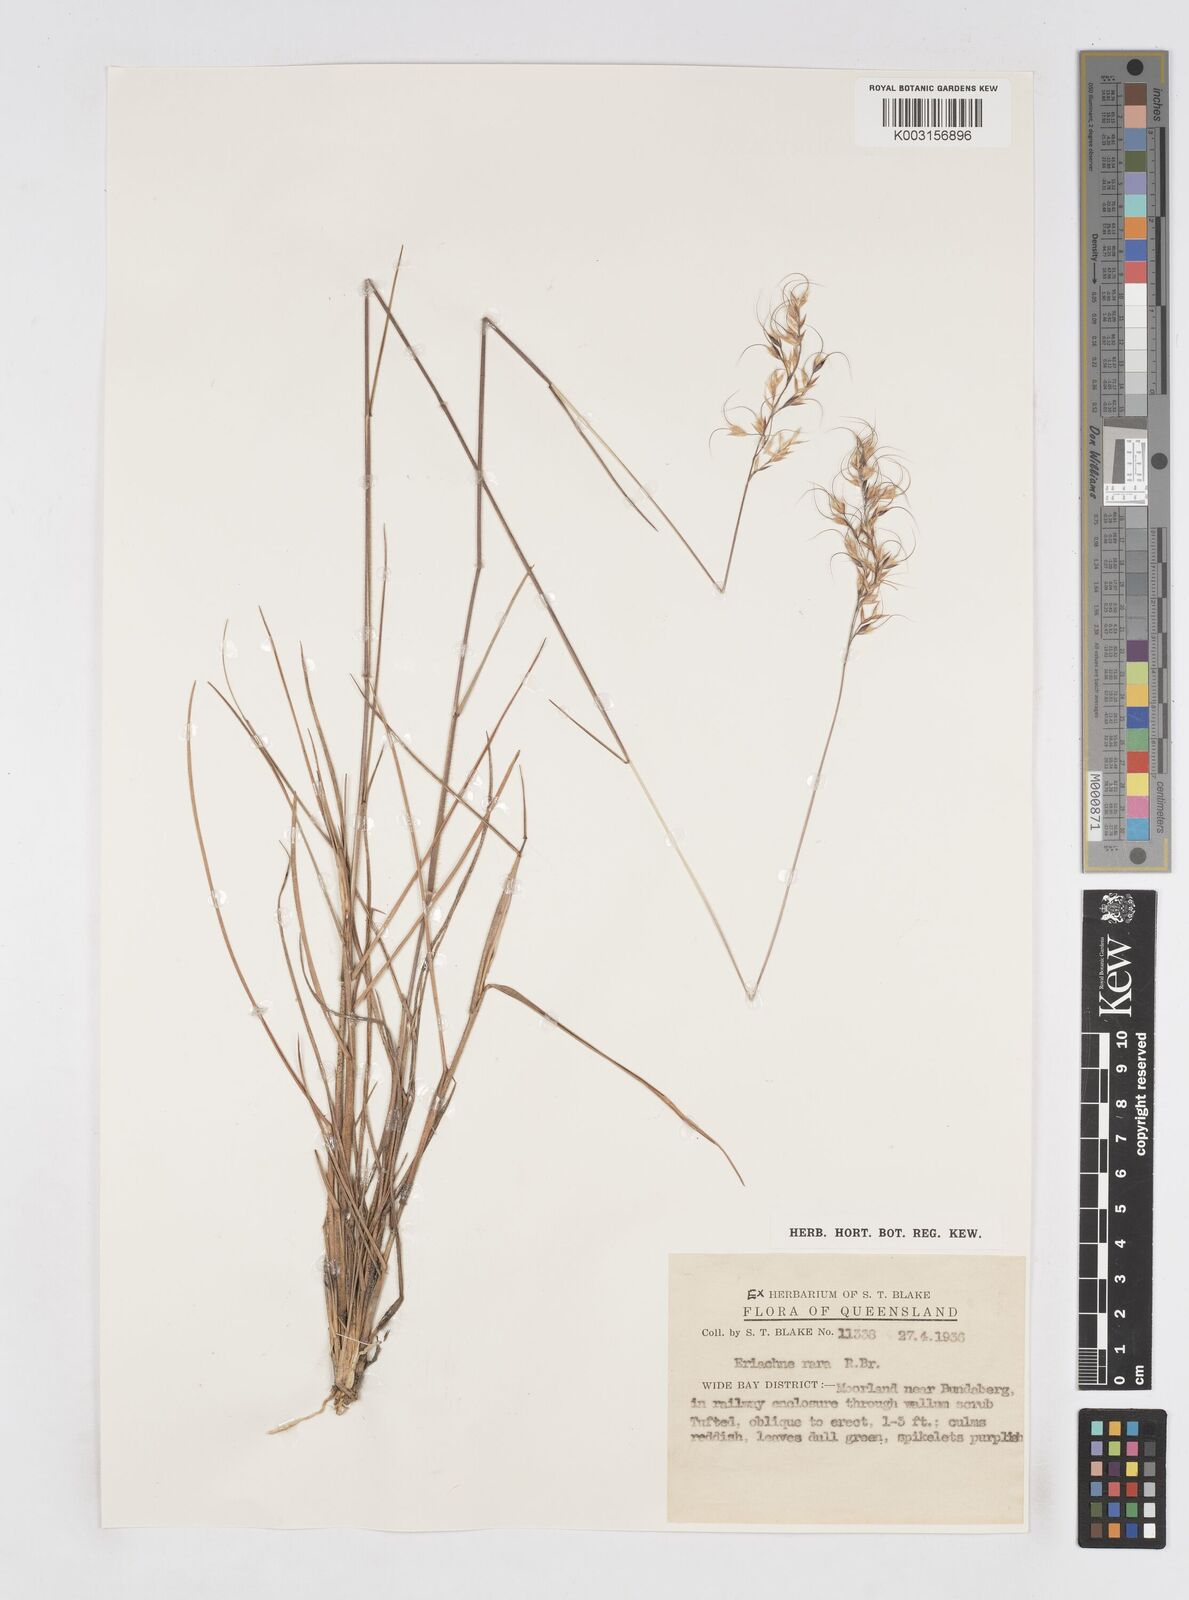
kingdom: Plantae
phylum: Tracheophyta
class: Liliopsida
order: Poales
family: Poaceae
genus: Eriachne
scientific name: Eriachne rara
